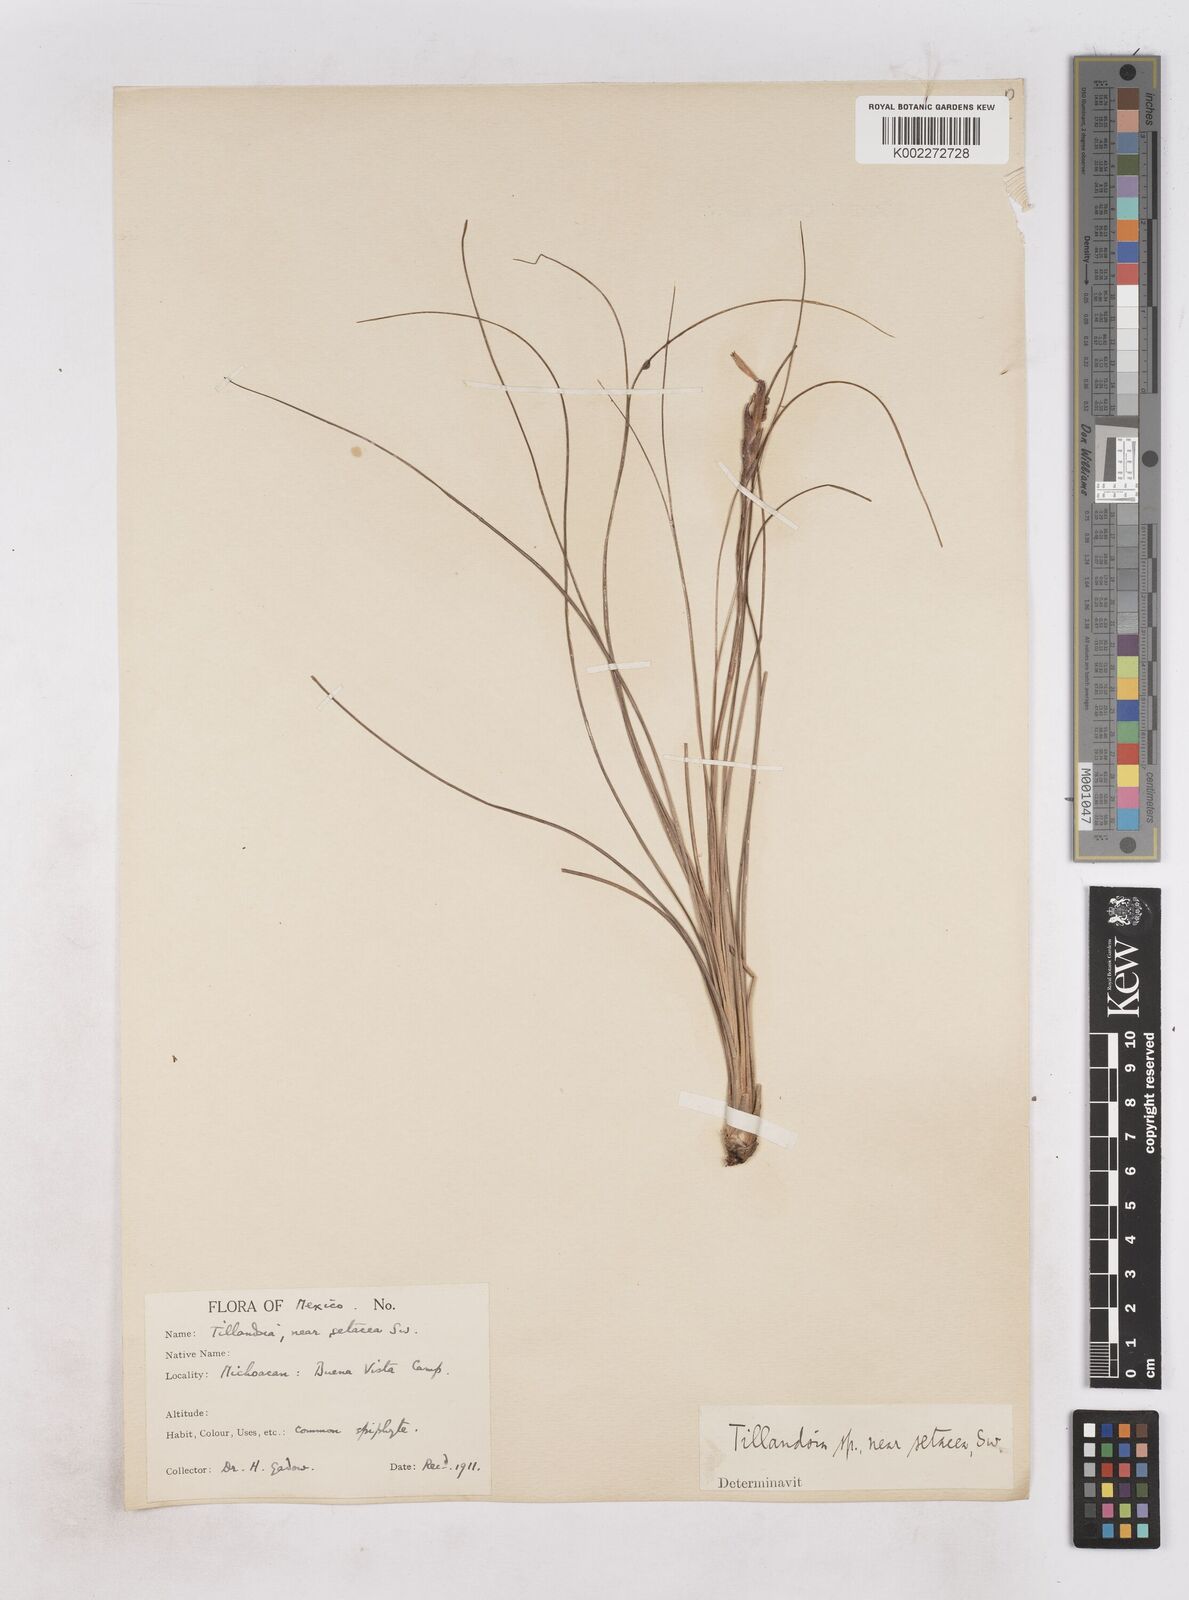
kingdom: Plantae
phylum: Tracheophyta
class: Liliopsida
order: Poales
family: Bromeliaceae
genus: Tillandsia
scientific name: Tillandsia setacea
